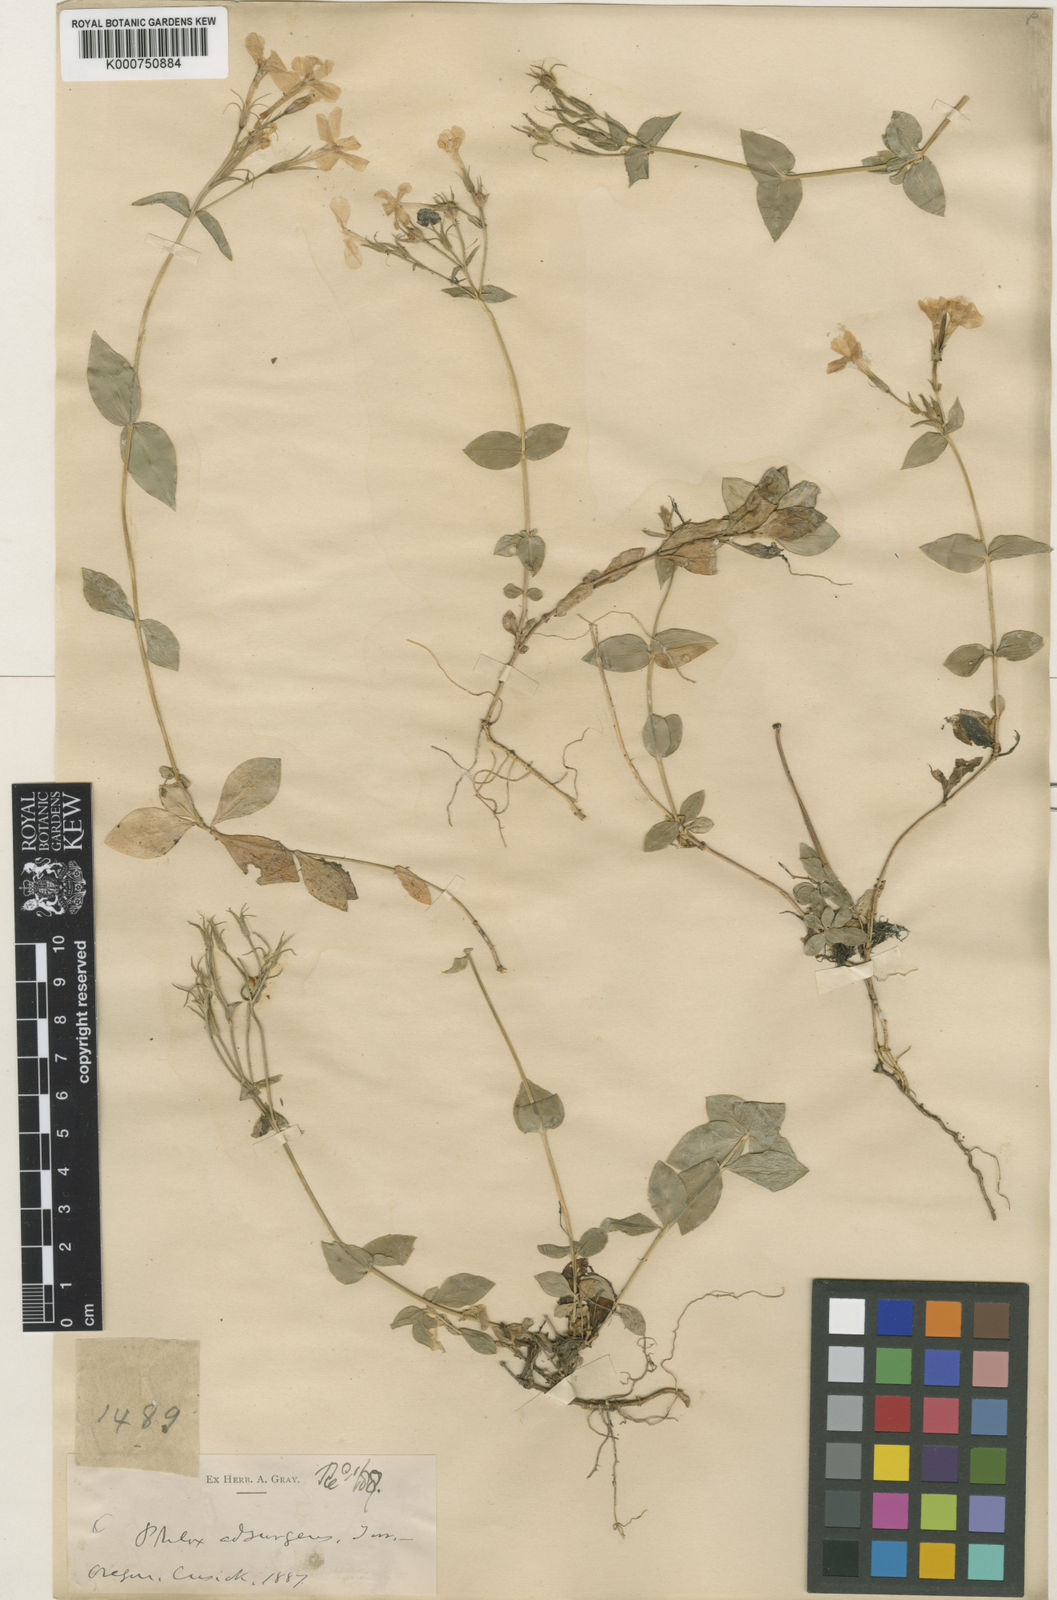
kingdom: Plantae
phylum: Tracheophyta
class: Magnoliopsida
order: Ericales
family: Polemoniaceae
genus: Phlox
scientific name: Phlox adsurgens
